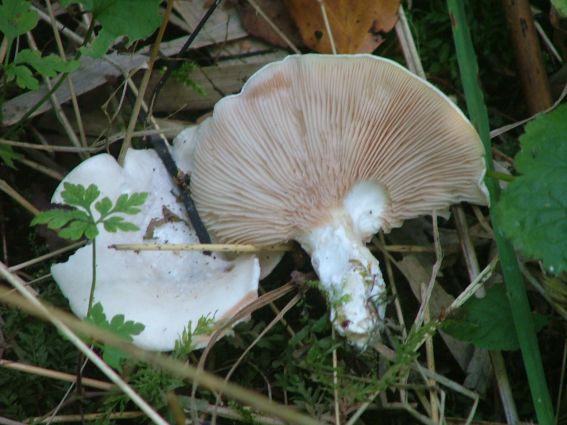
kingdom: Fungi
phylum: Basidiomycota
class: Agaricomycetes
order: Agaricales
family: Entolomataceae
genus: Clitopilus
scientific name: Clitopilus prunulus
